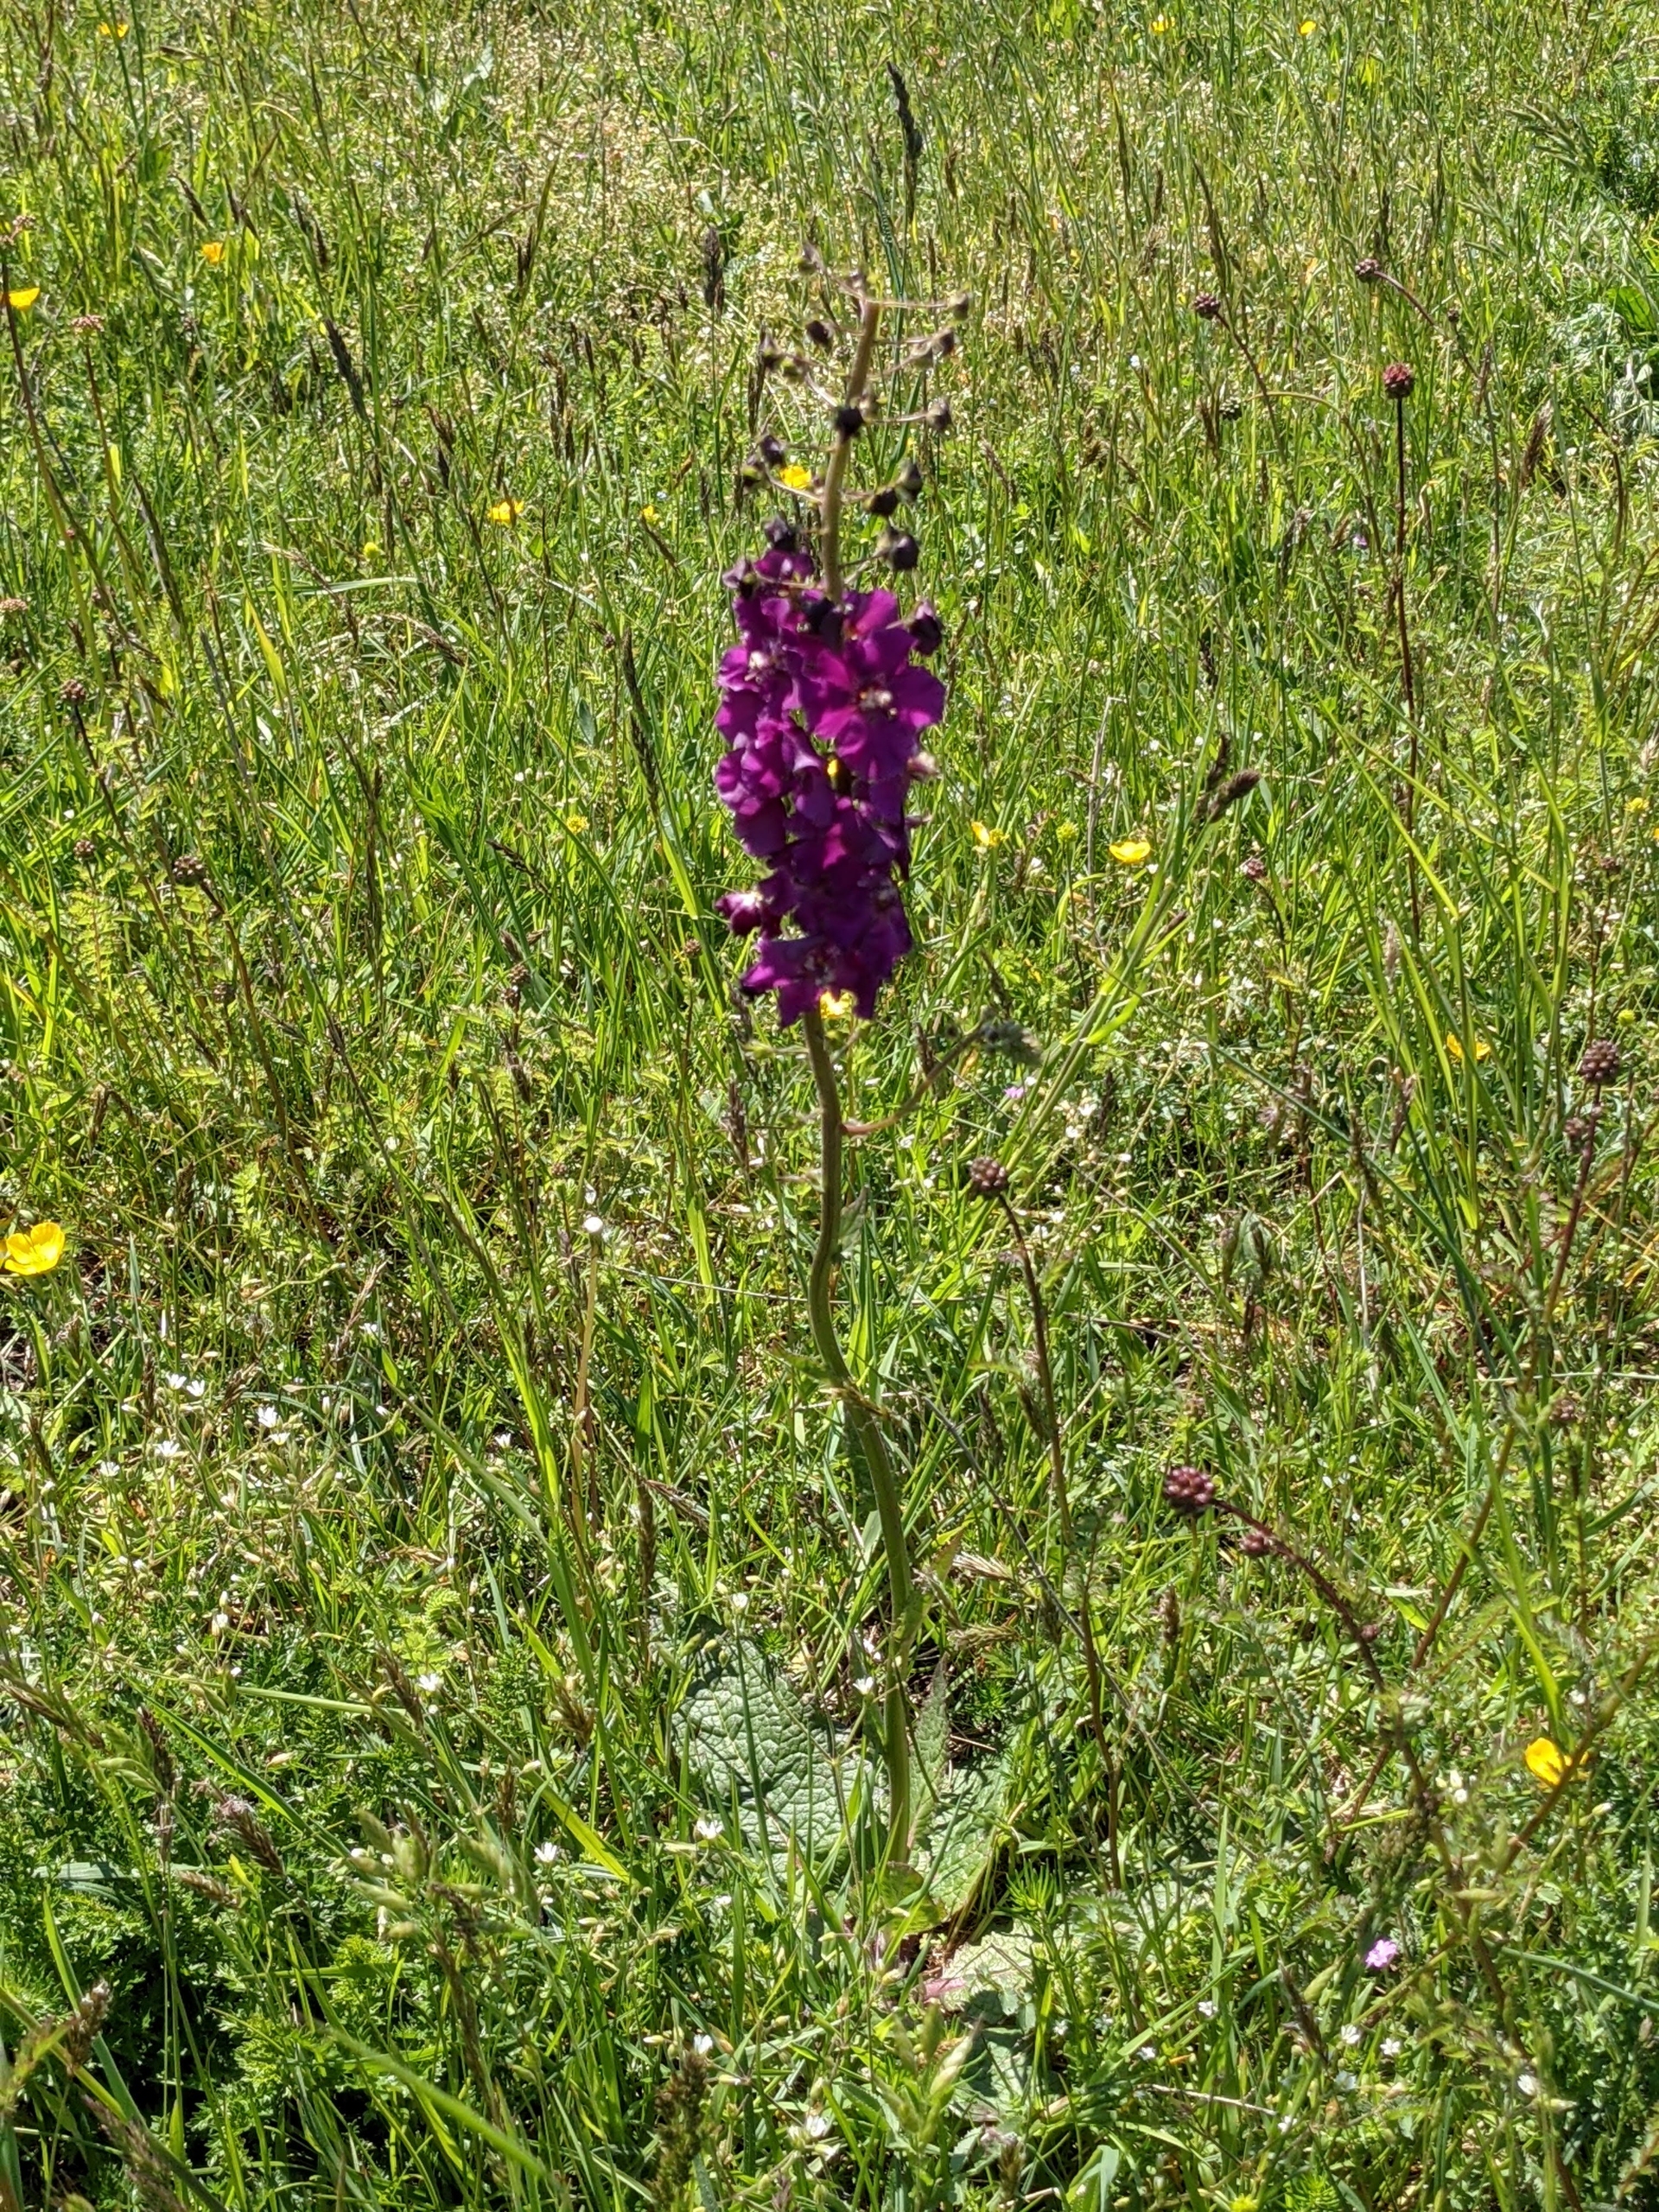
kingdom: Plantae
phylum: Tracheophyta
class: Magnoliopsida
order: Lamiales
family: Scrophulariaceae
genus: Verbascum
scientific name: Verbascum phoeniceum
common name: Purpur-kongelys
